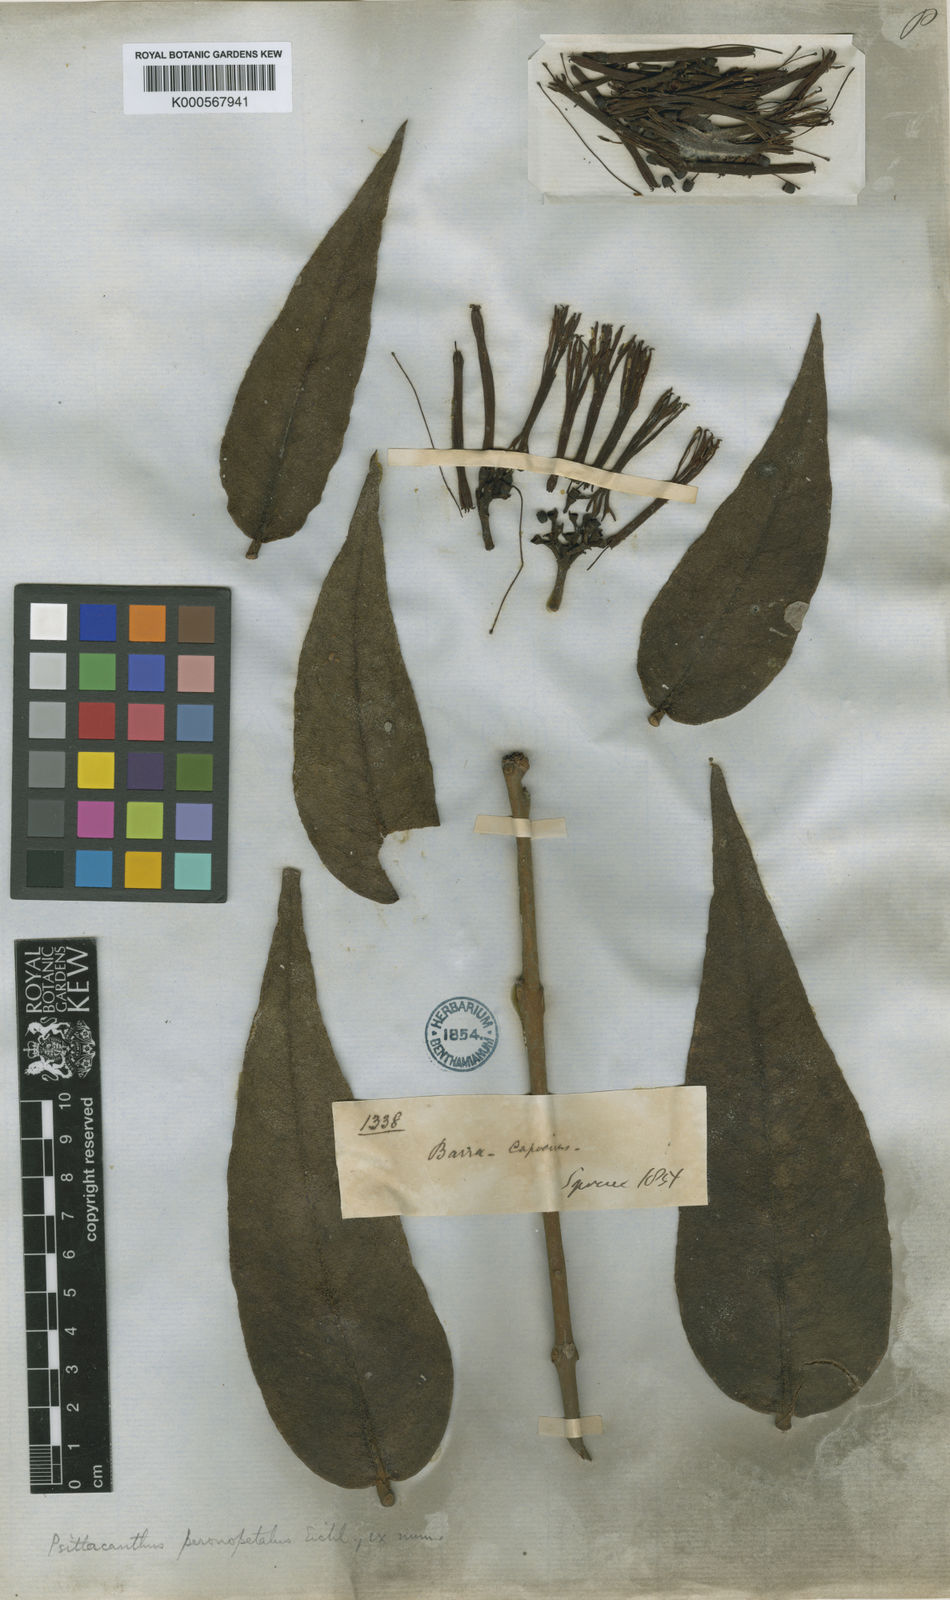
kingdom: Plantae
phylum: Tracheophyta
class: Magnoliopsida
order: Santalales
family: Loranthaceae
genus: Psittacanthus
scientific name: Psittacanthus peronopetalus
